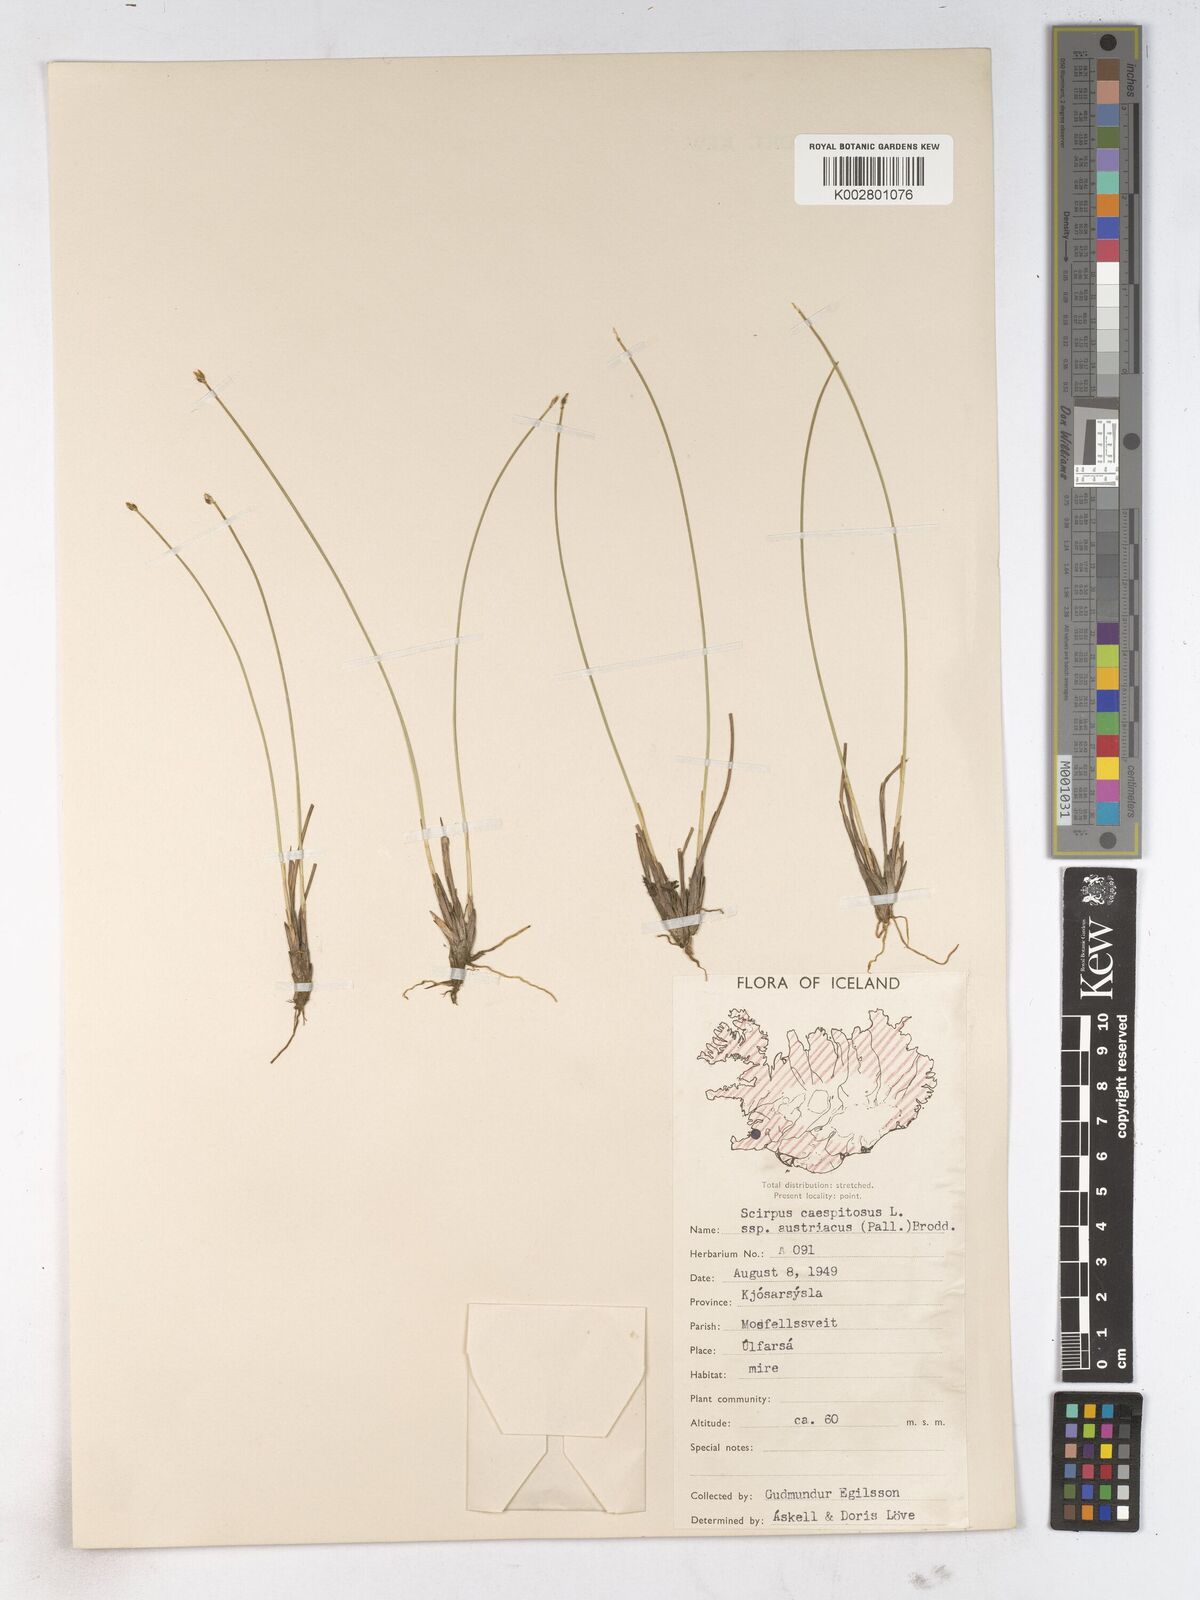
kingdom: Plantae
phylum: Tracheophyta
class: Liliopsida
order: Poales
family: Cyperaceae
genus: Trichophorum
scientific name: Trichophorum cespitosum
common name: Cespitose bulrush
